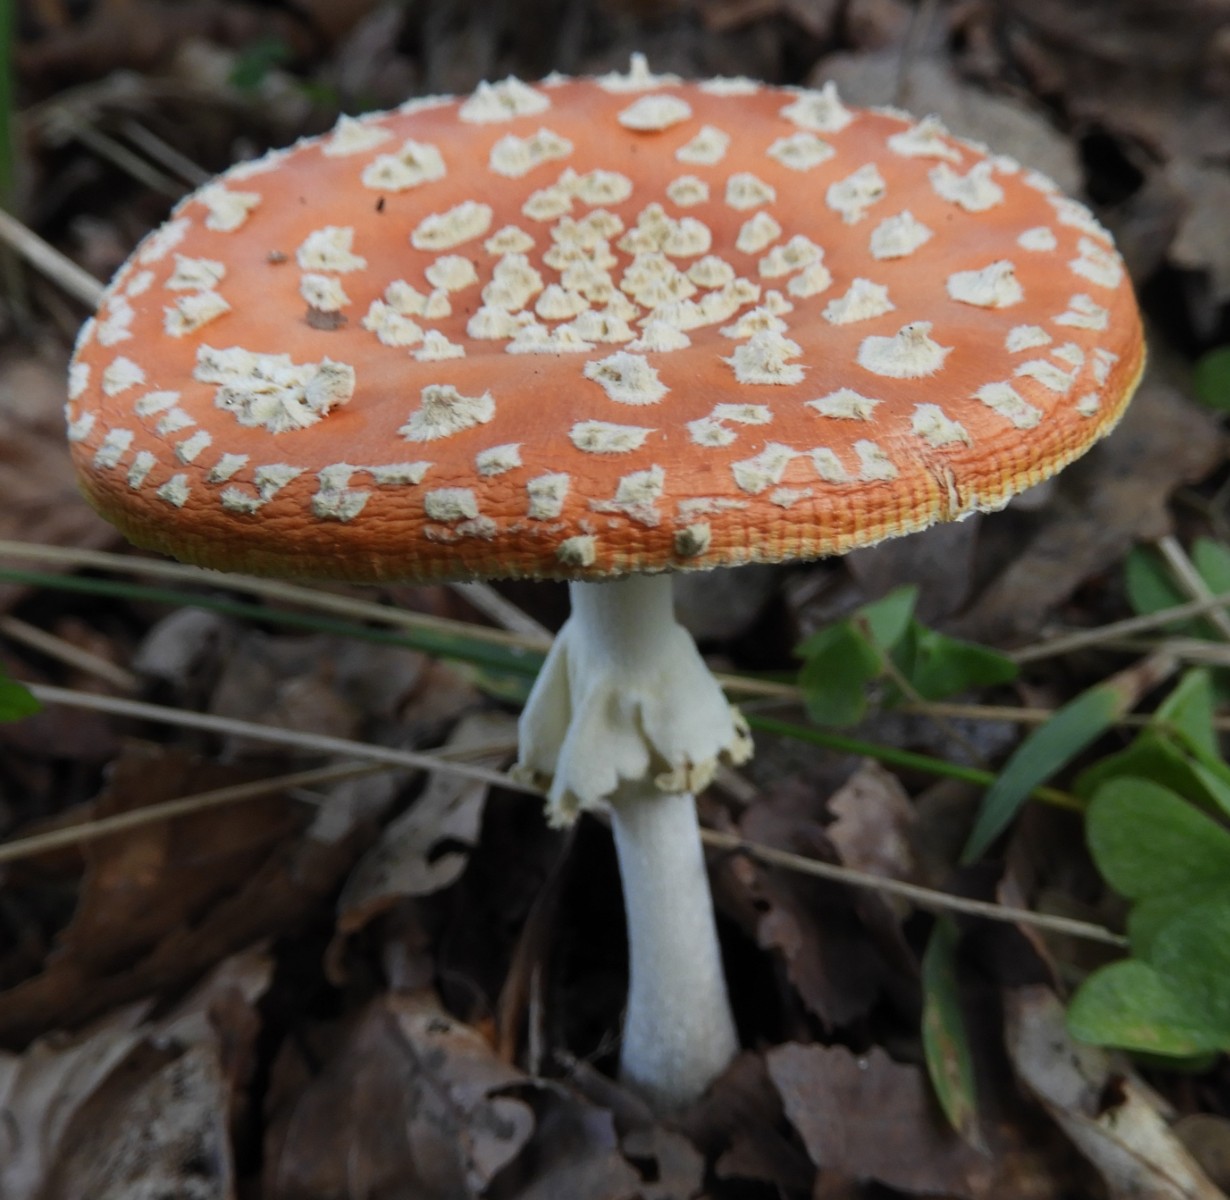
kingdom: Fungi
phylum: Basidiomycota
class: Agaricomycetes
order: Agaricales
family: Amanitaceae
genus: Amanita
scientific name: Amanita muscaria
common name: rød fluesvamp
